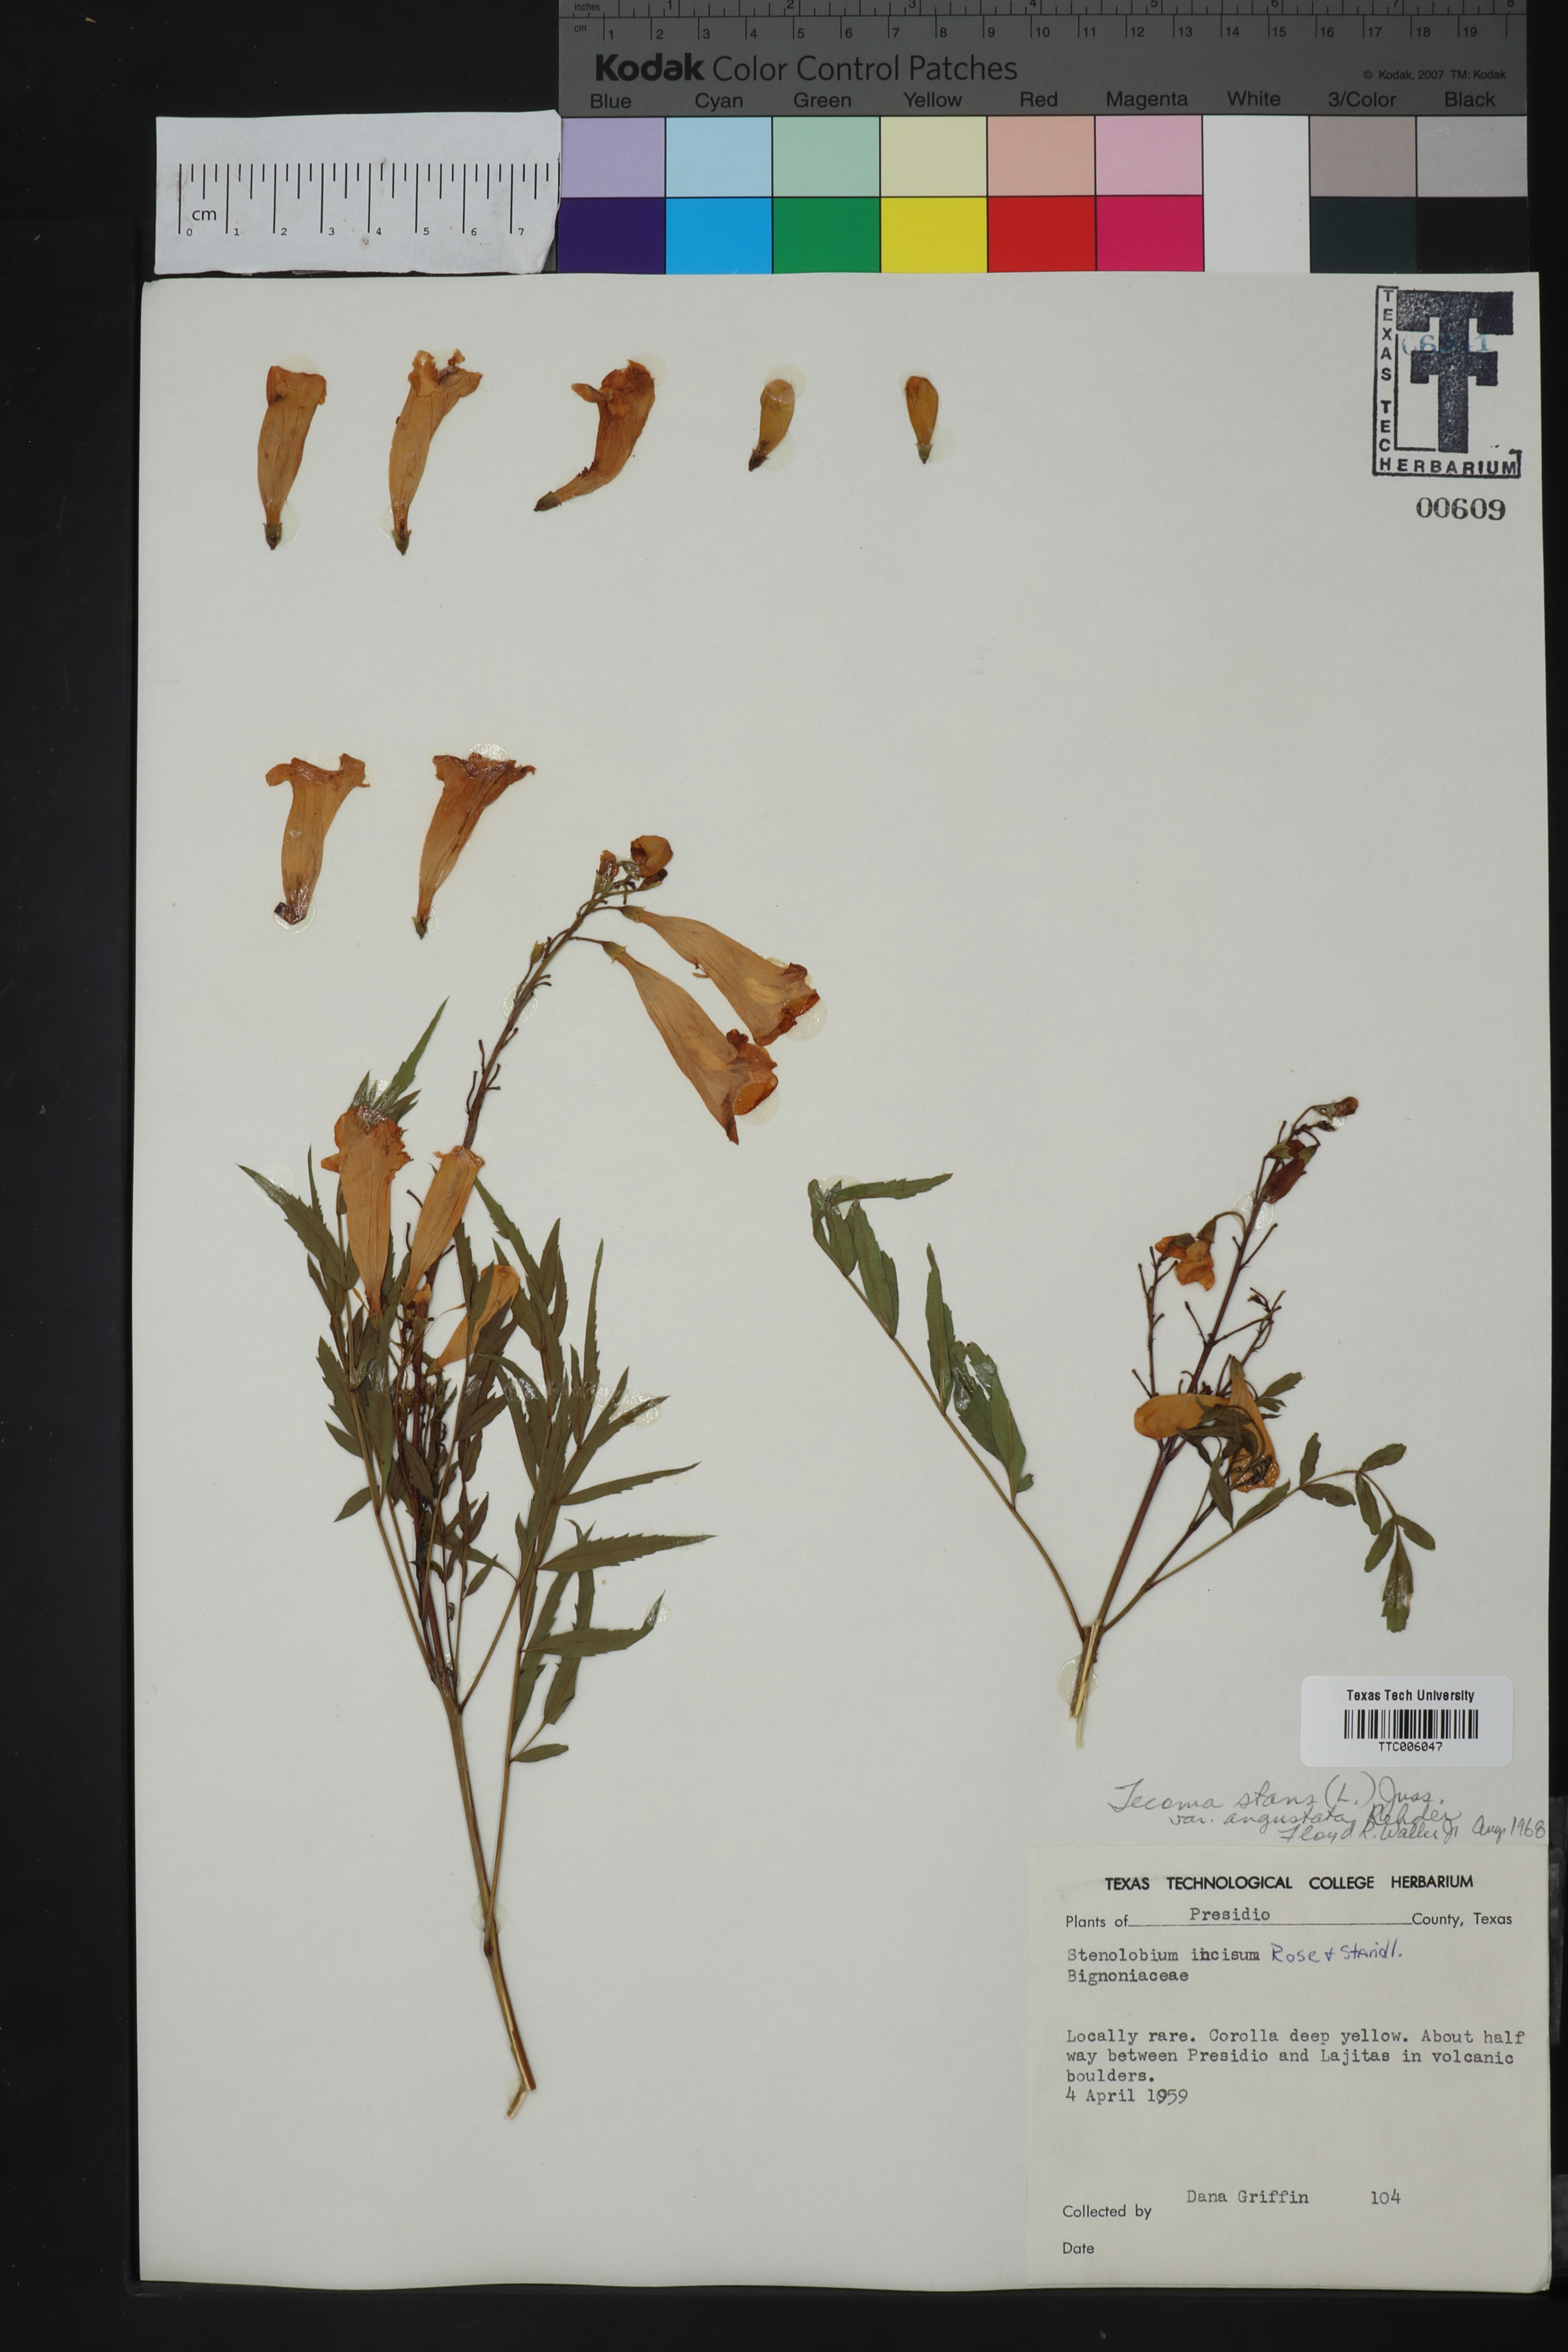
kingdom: Plantae
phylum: Tracheophyta
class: Magnoliopsida
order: Lamiales
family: Bignoniaceae
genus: Tecoma
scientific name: Tecoma stans
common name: Yellow trumpetbush
